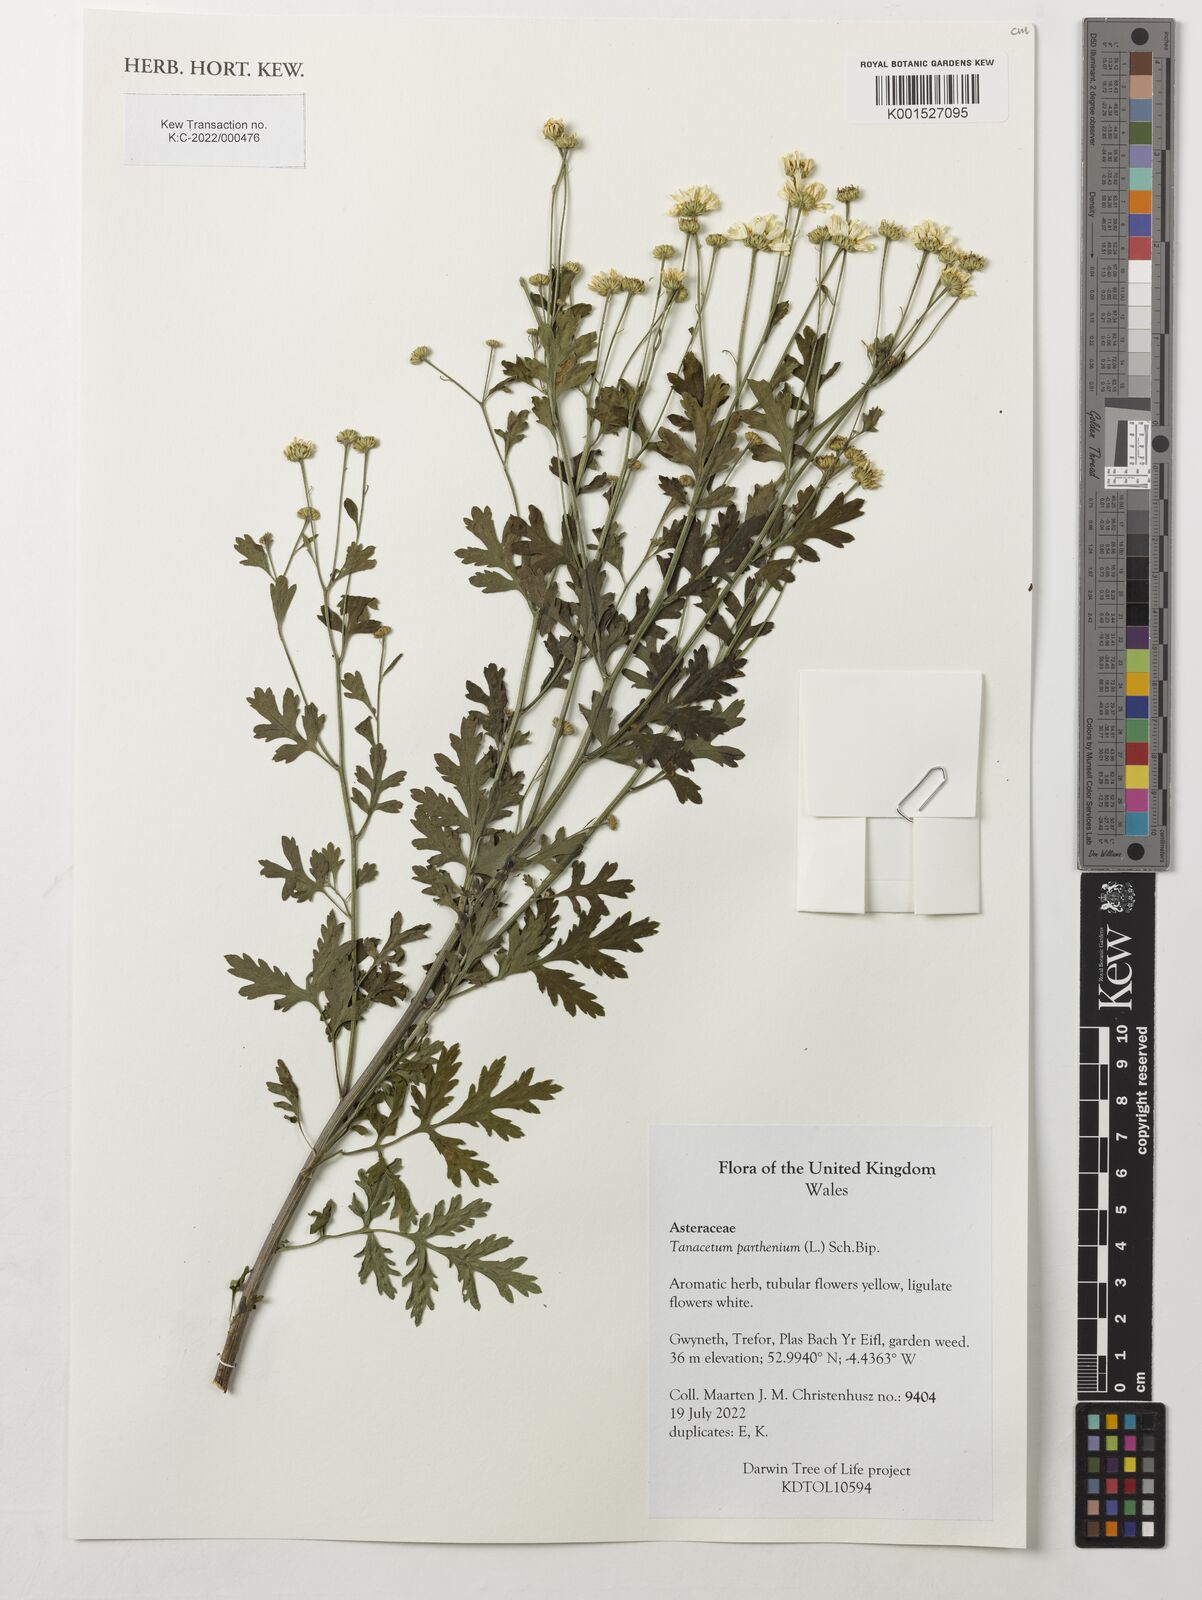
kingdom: Plantae
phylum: Tracheophyta
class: Magnoliopsida
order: Asterales
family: Asteraceae
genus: Tanacetum
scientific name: Tanacetum parthenium
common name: Feverfew
